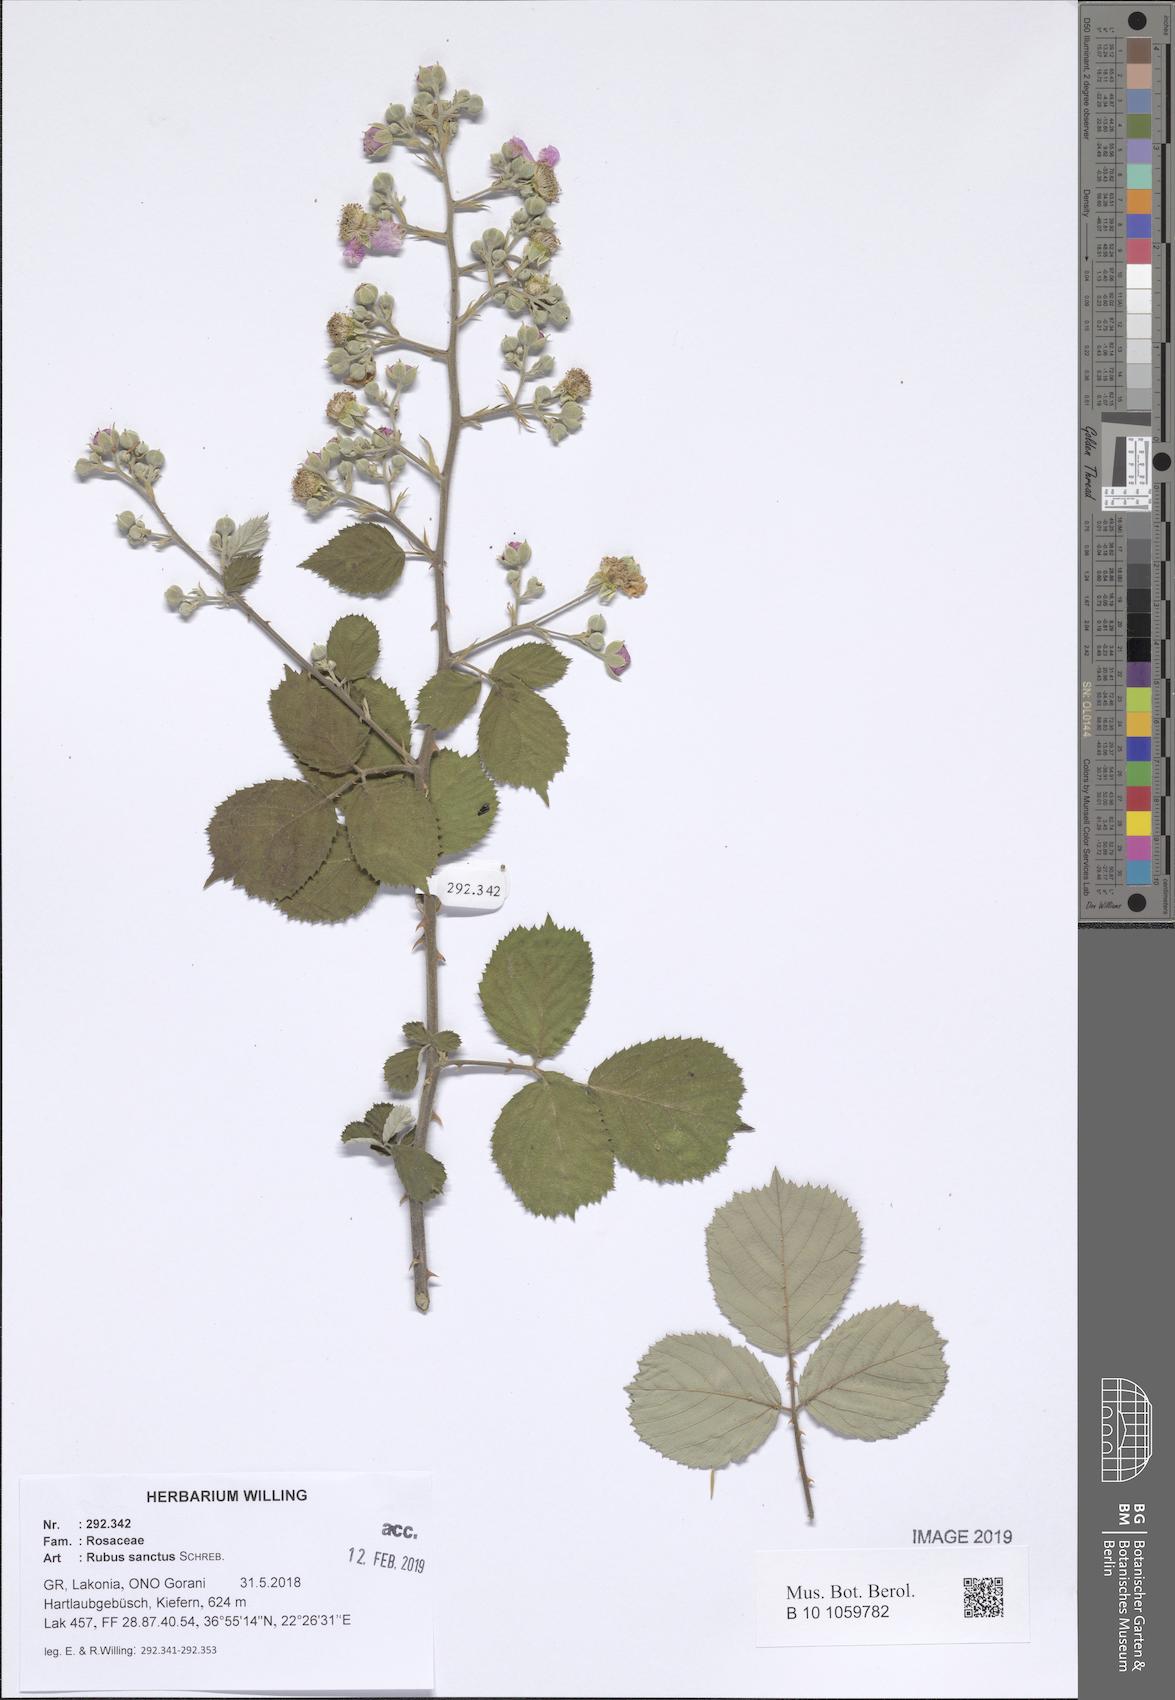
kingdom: Plantae
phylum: Tracheophyta
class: Magnoliopsida
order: Rosales
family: Rosaceae
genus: Rubus
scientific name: Rubus sanctus
